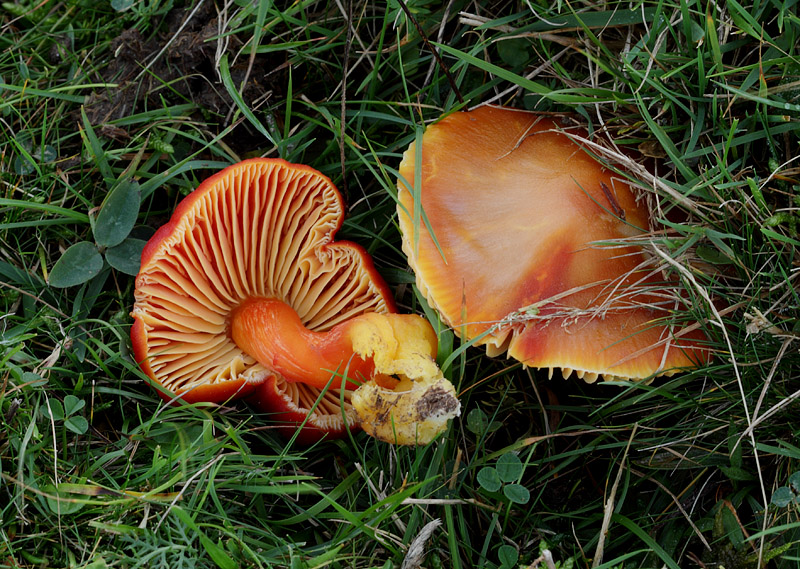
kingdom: Fungi
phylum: Basidiomycota
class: Agaricomycetes
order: Agaricales
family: Hygrophoraceae
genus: Hygrocybe
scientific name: Hygrocybe punicea
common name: skarlagen-vokshat
